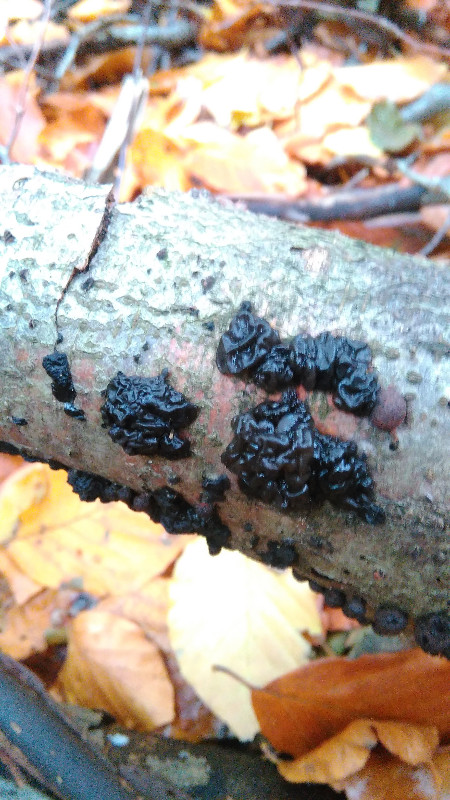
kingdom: Fungi
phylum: Basidiomycota
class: Agaricomycetes
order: Auriculariales
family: Auriculariaceae
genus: Exidia
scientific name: Exidia nigricans
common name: almindelig bævretop
